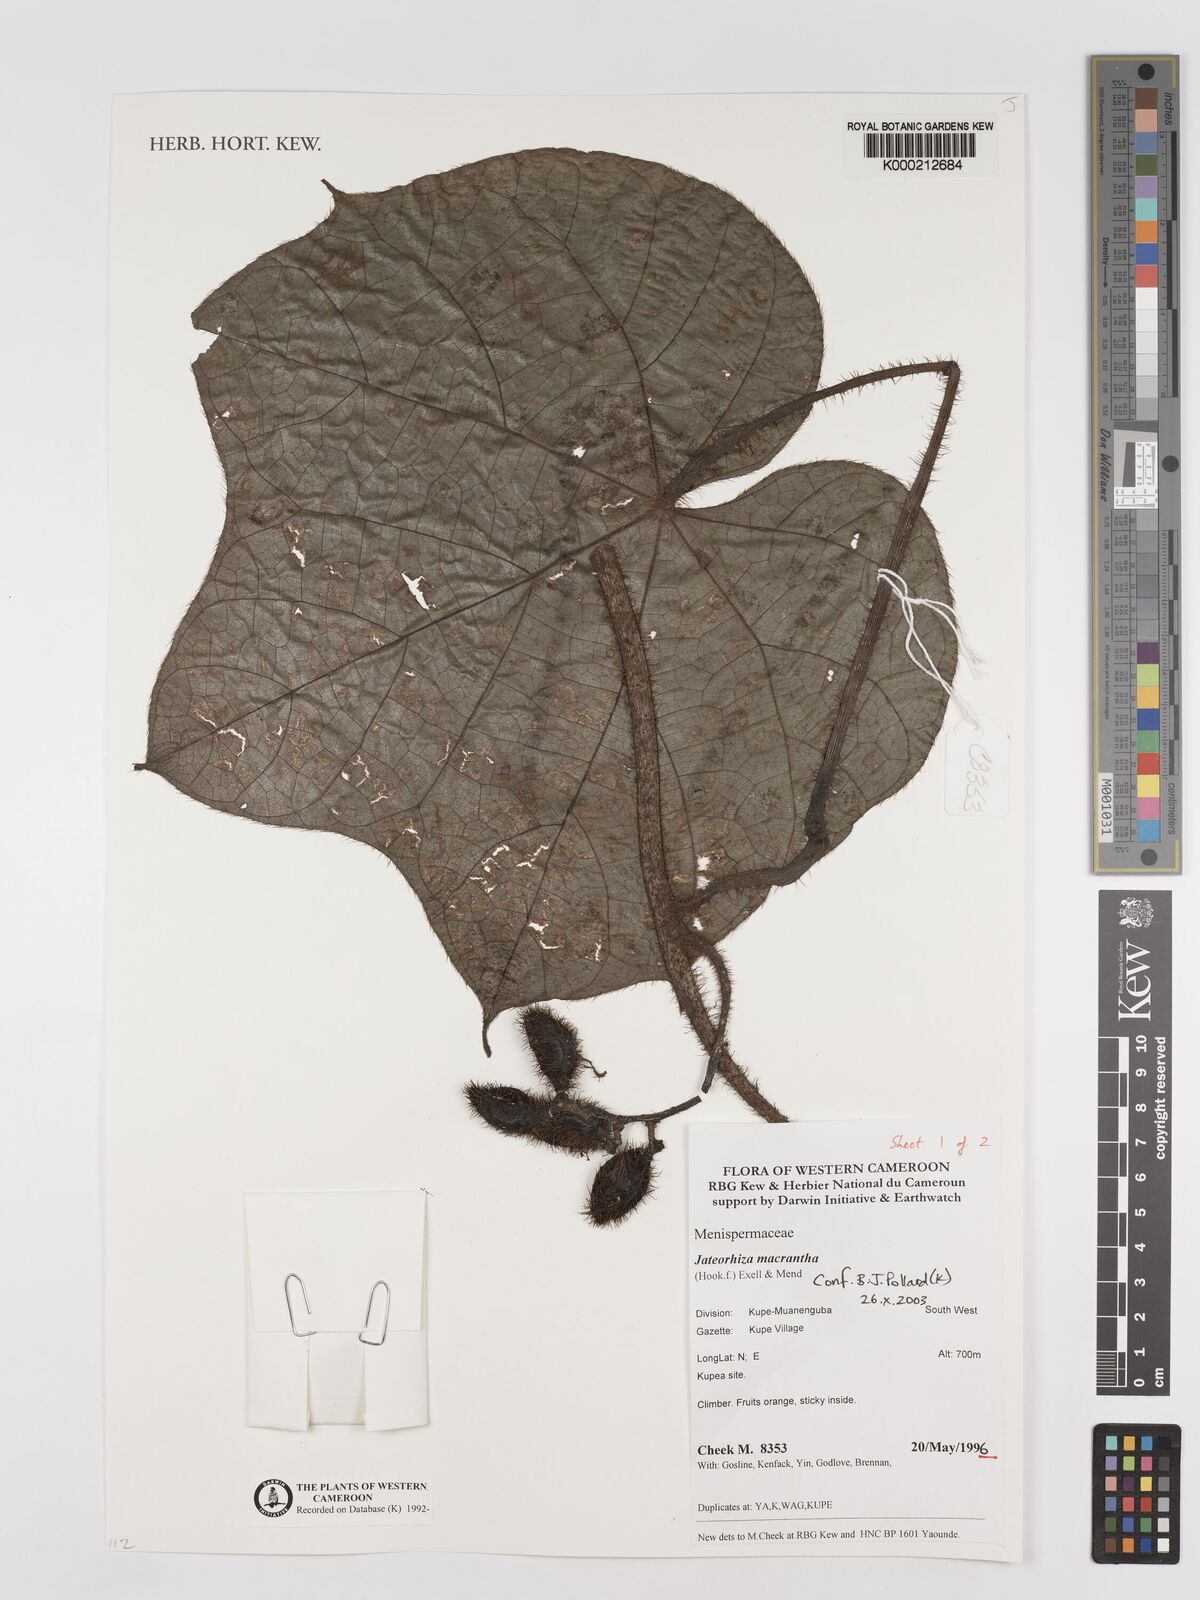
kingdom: Plantae
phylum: Tracheophyta
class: Magnoliopsida
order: Ranunculales
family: Menispermaceae
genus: Jateorhiza
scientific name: Jateorhiza
